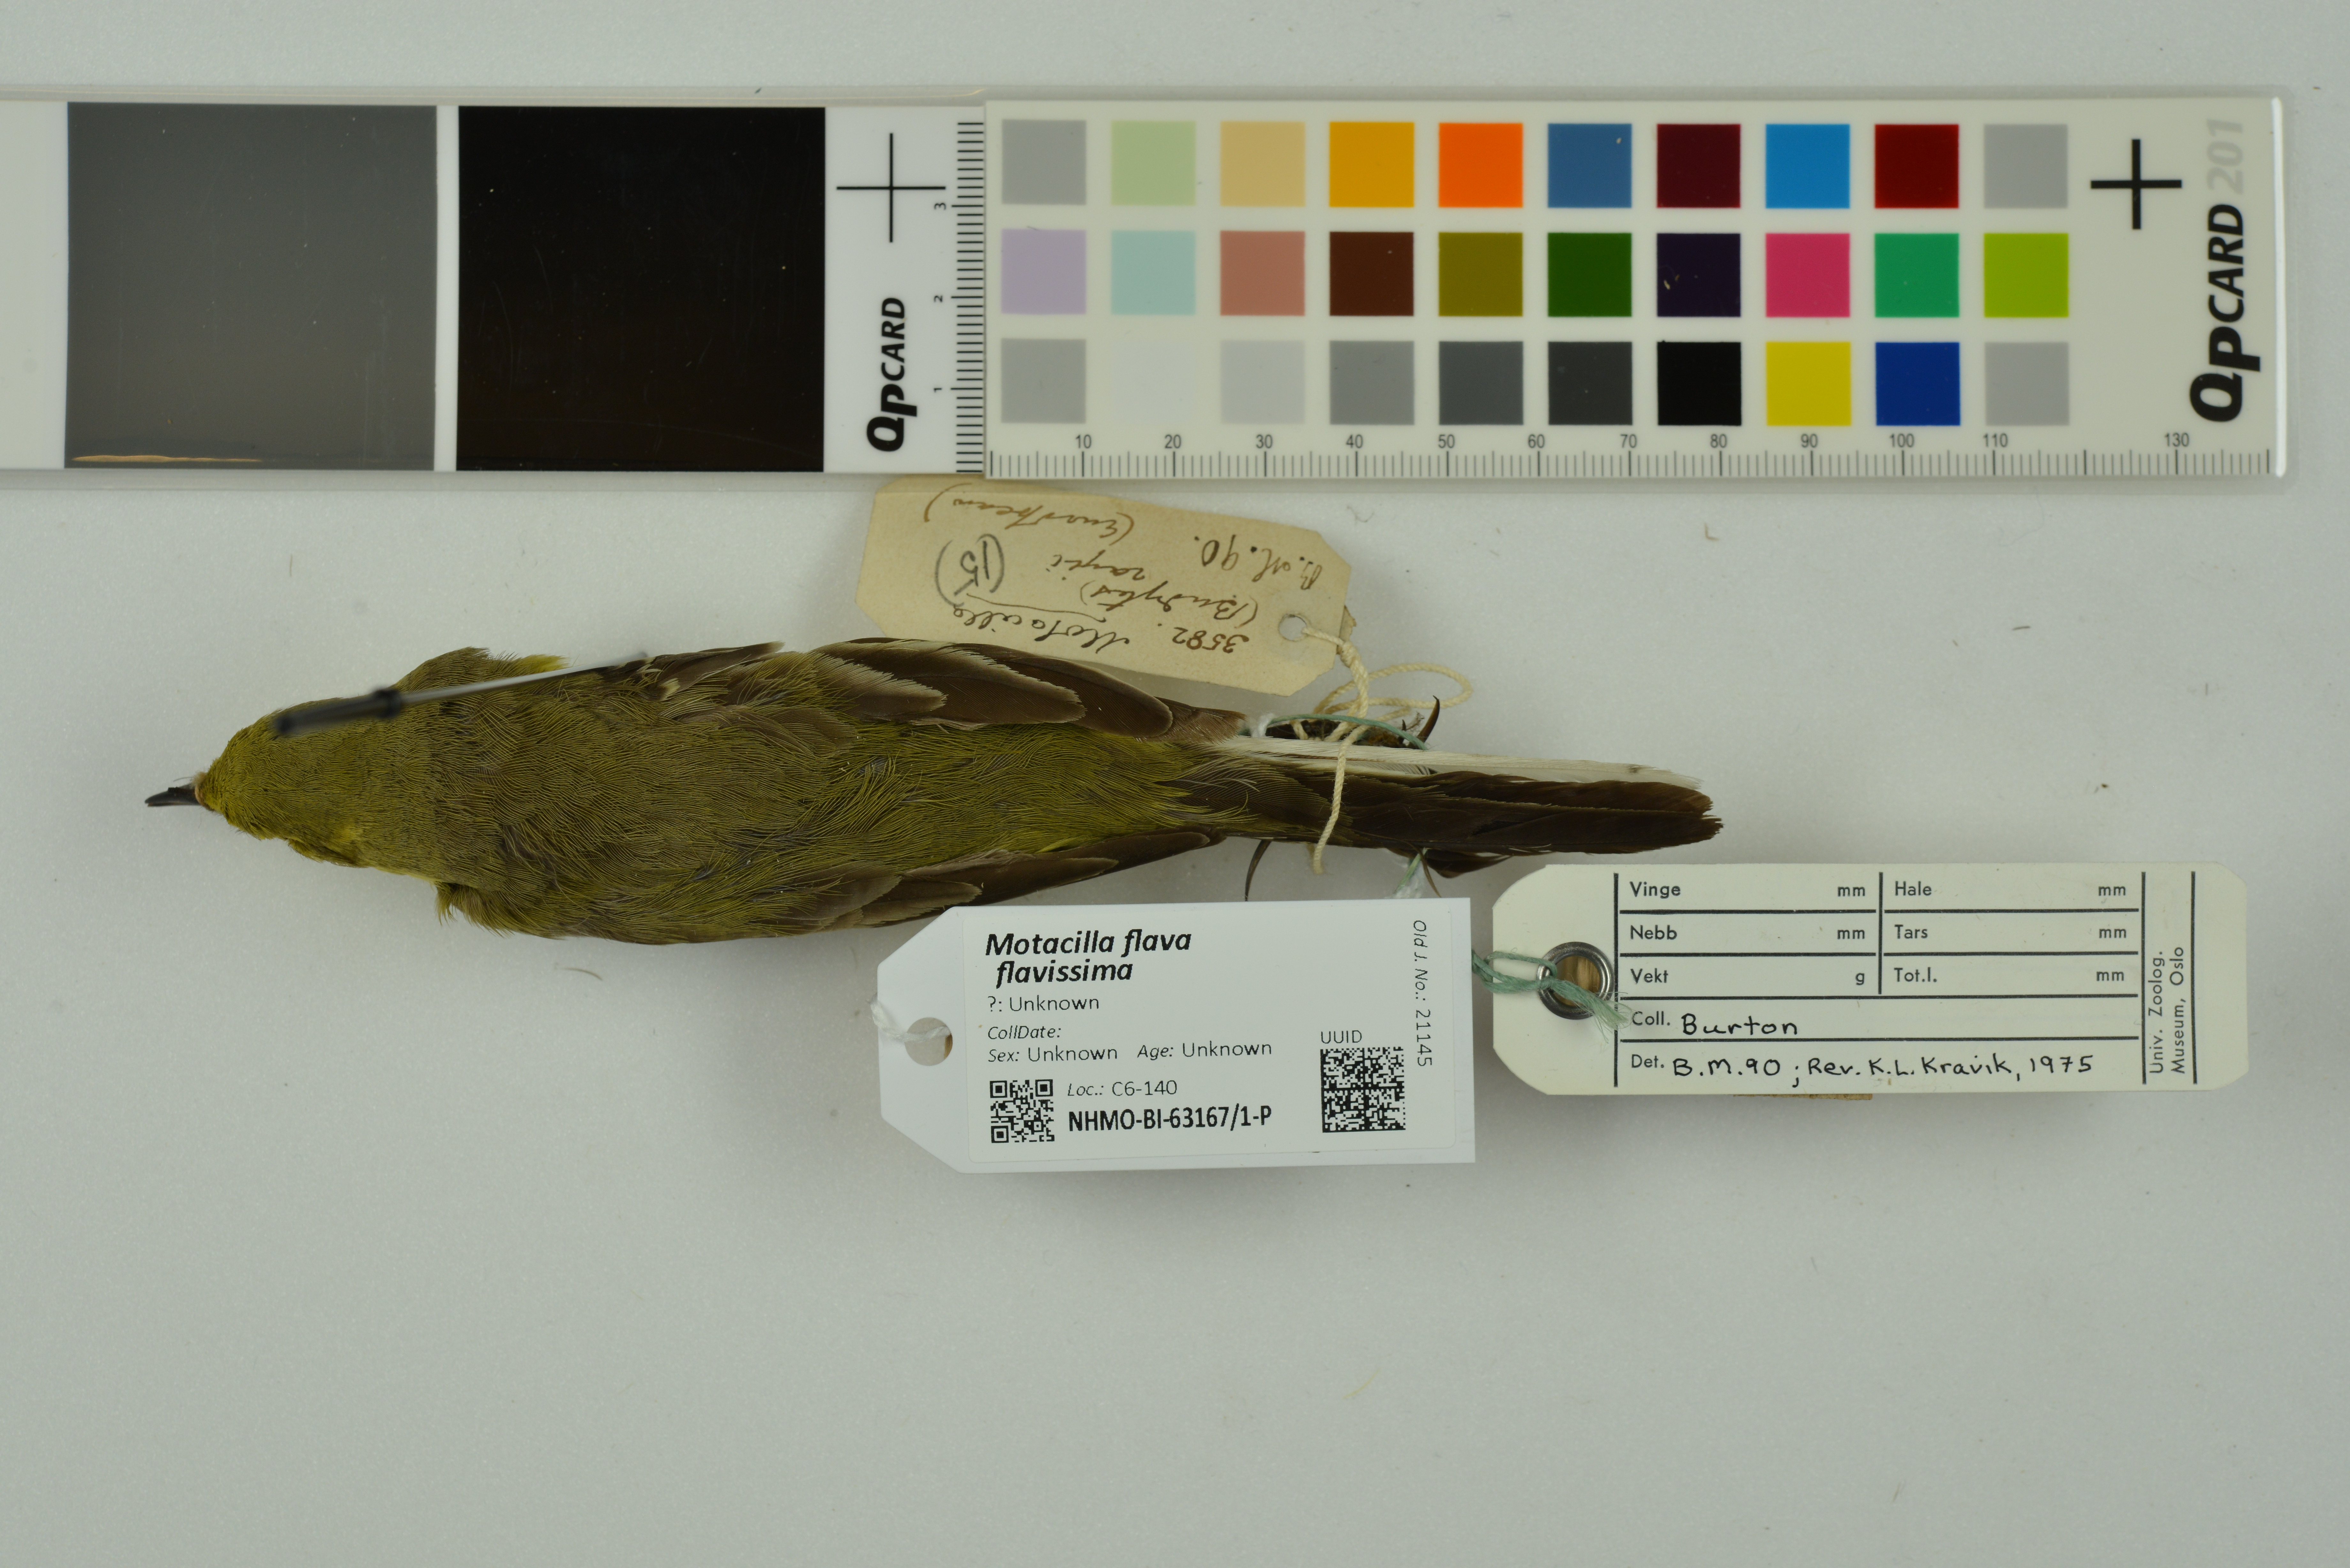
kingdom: Animalia
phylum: Chordata
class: Aves
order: Passeriformes
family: Motacillidae
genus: Motacilla
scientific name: Motacilla flava
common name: Western yellow wagtail
